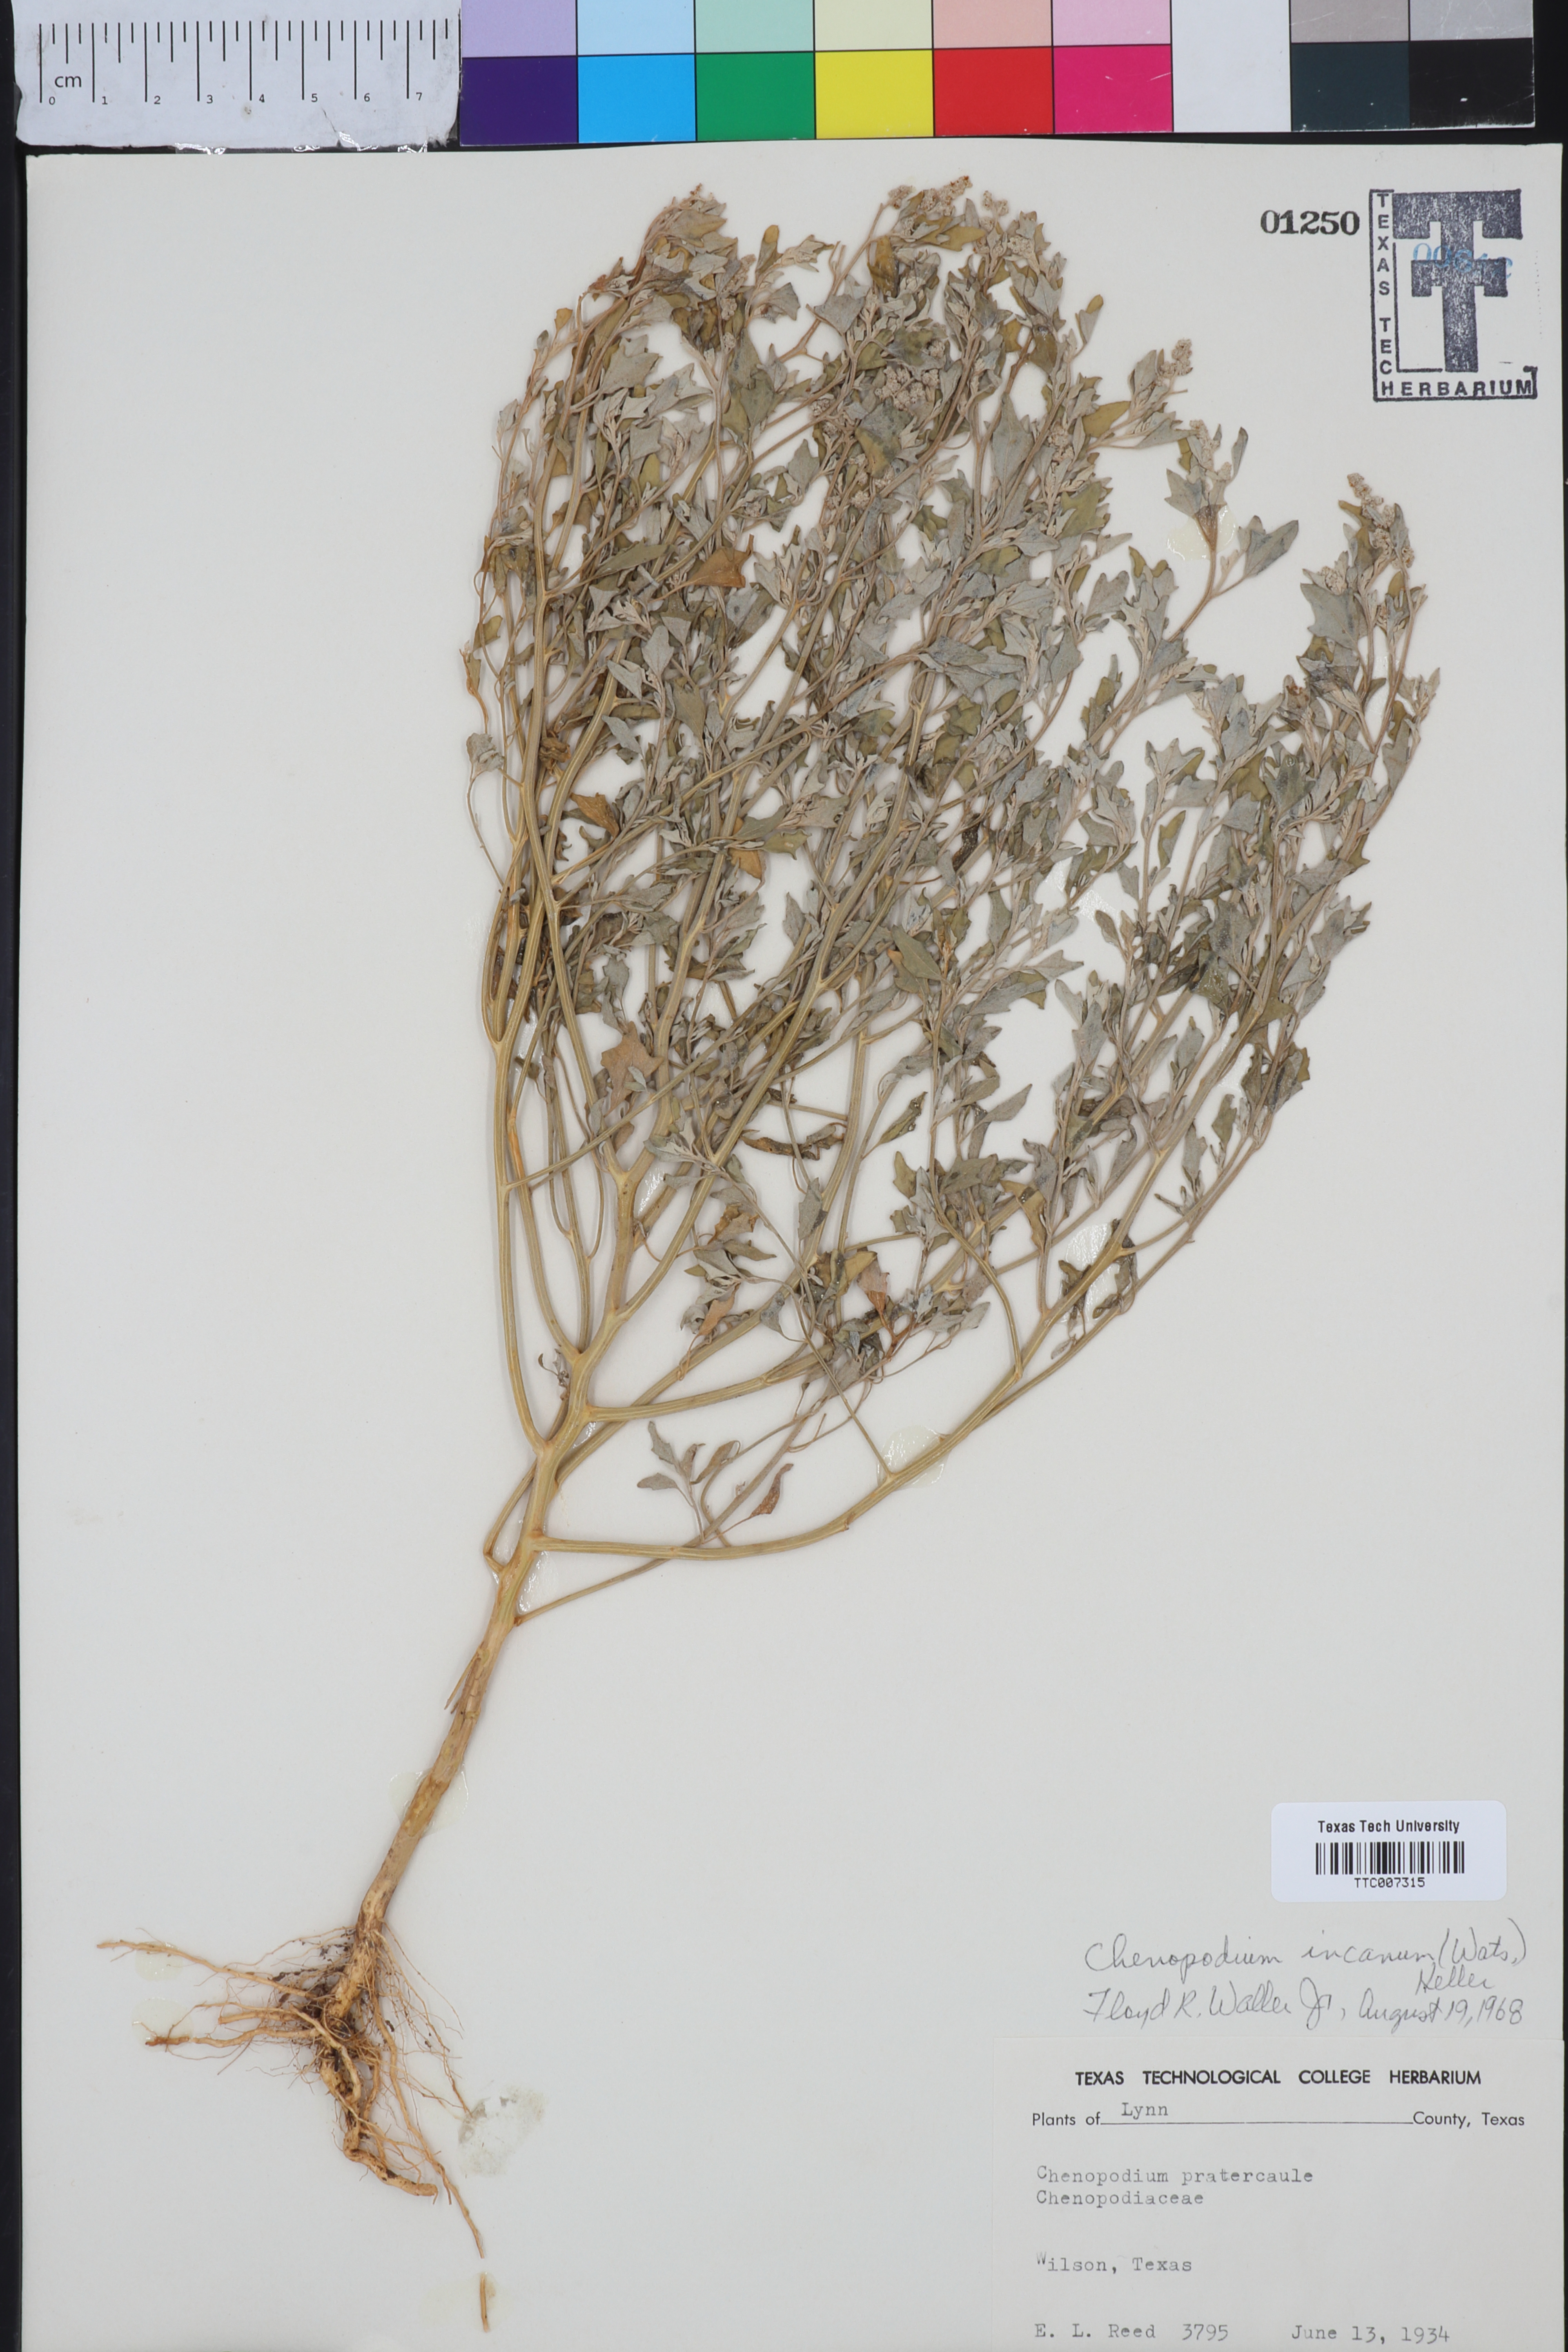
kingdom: Plantae
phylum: Tracheophyta
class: Magnoliopsida
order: Caryophyllales
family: Amaranthaceae
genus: Chenopodium
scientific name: Chenopodium incanum
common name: Hoary goosefoot
